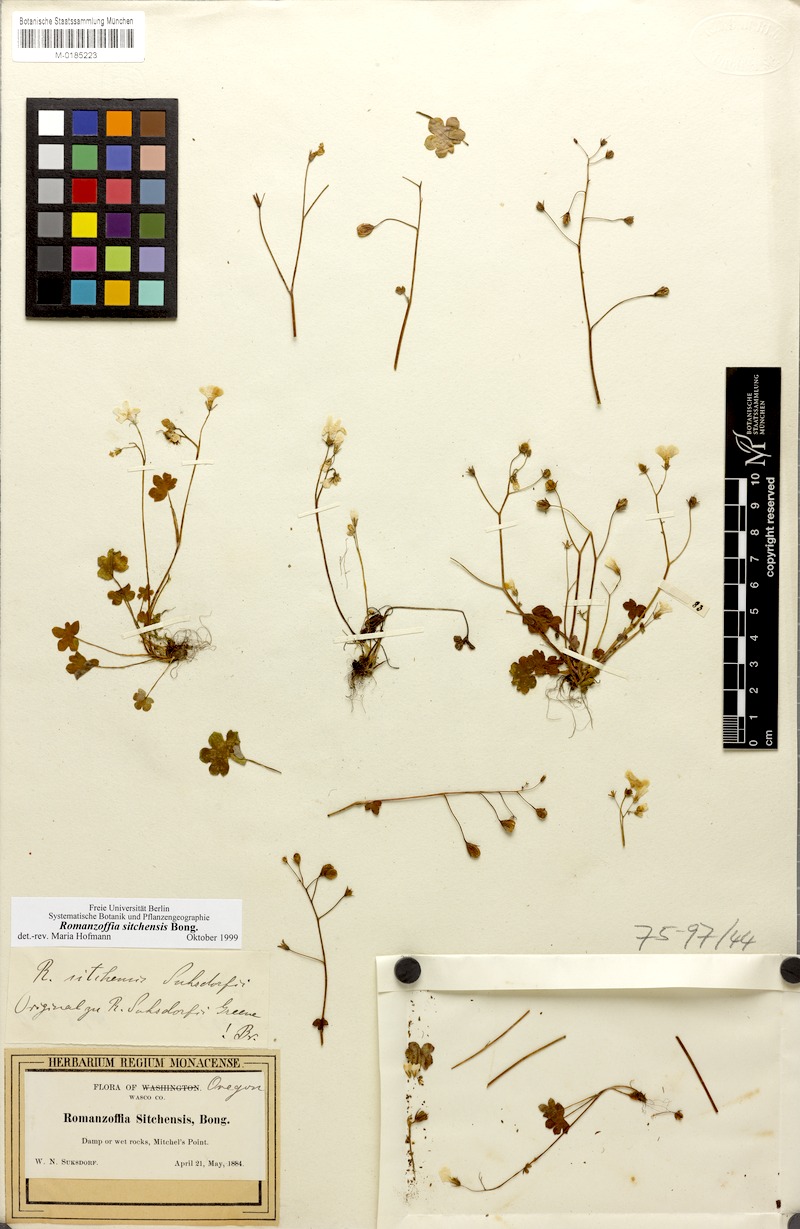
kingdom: Plantae
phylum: Tracheophyta
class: Magnoliopsida
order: Boraginales
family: Hydrophyllaceae
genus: Romanzoffia
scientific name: Romanzoffia sitchensis
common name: Sitka mistmaid
